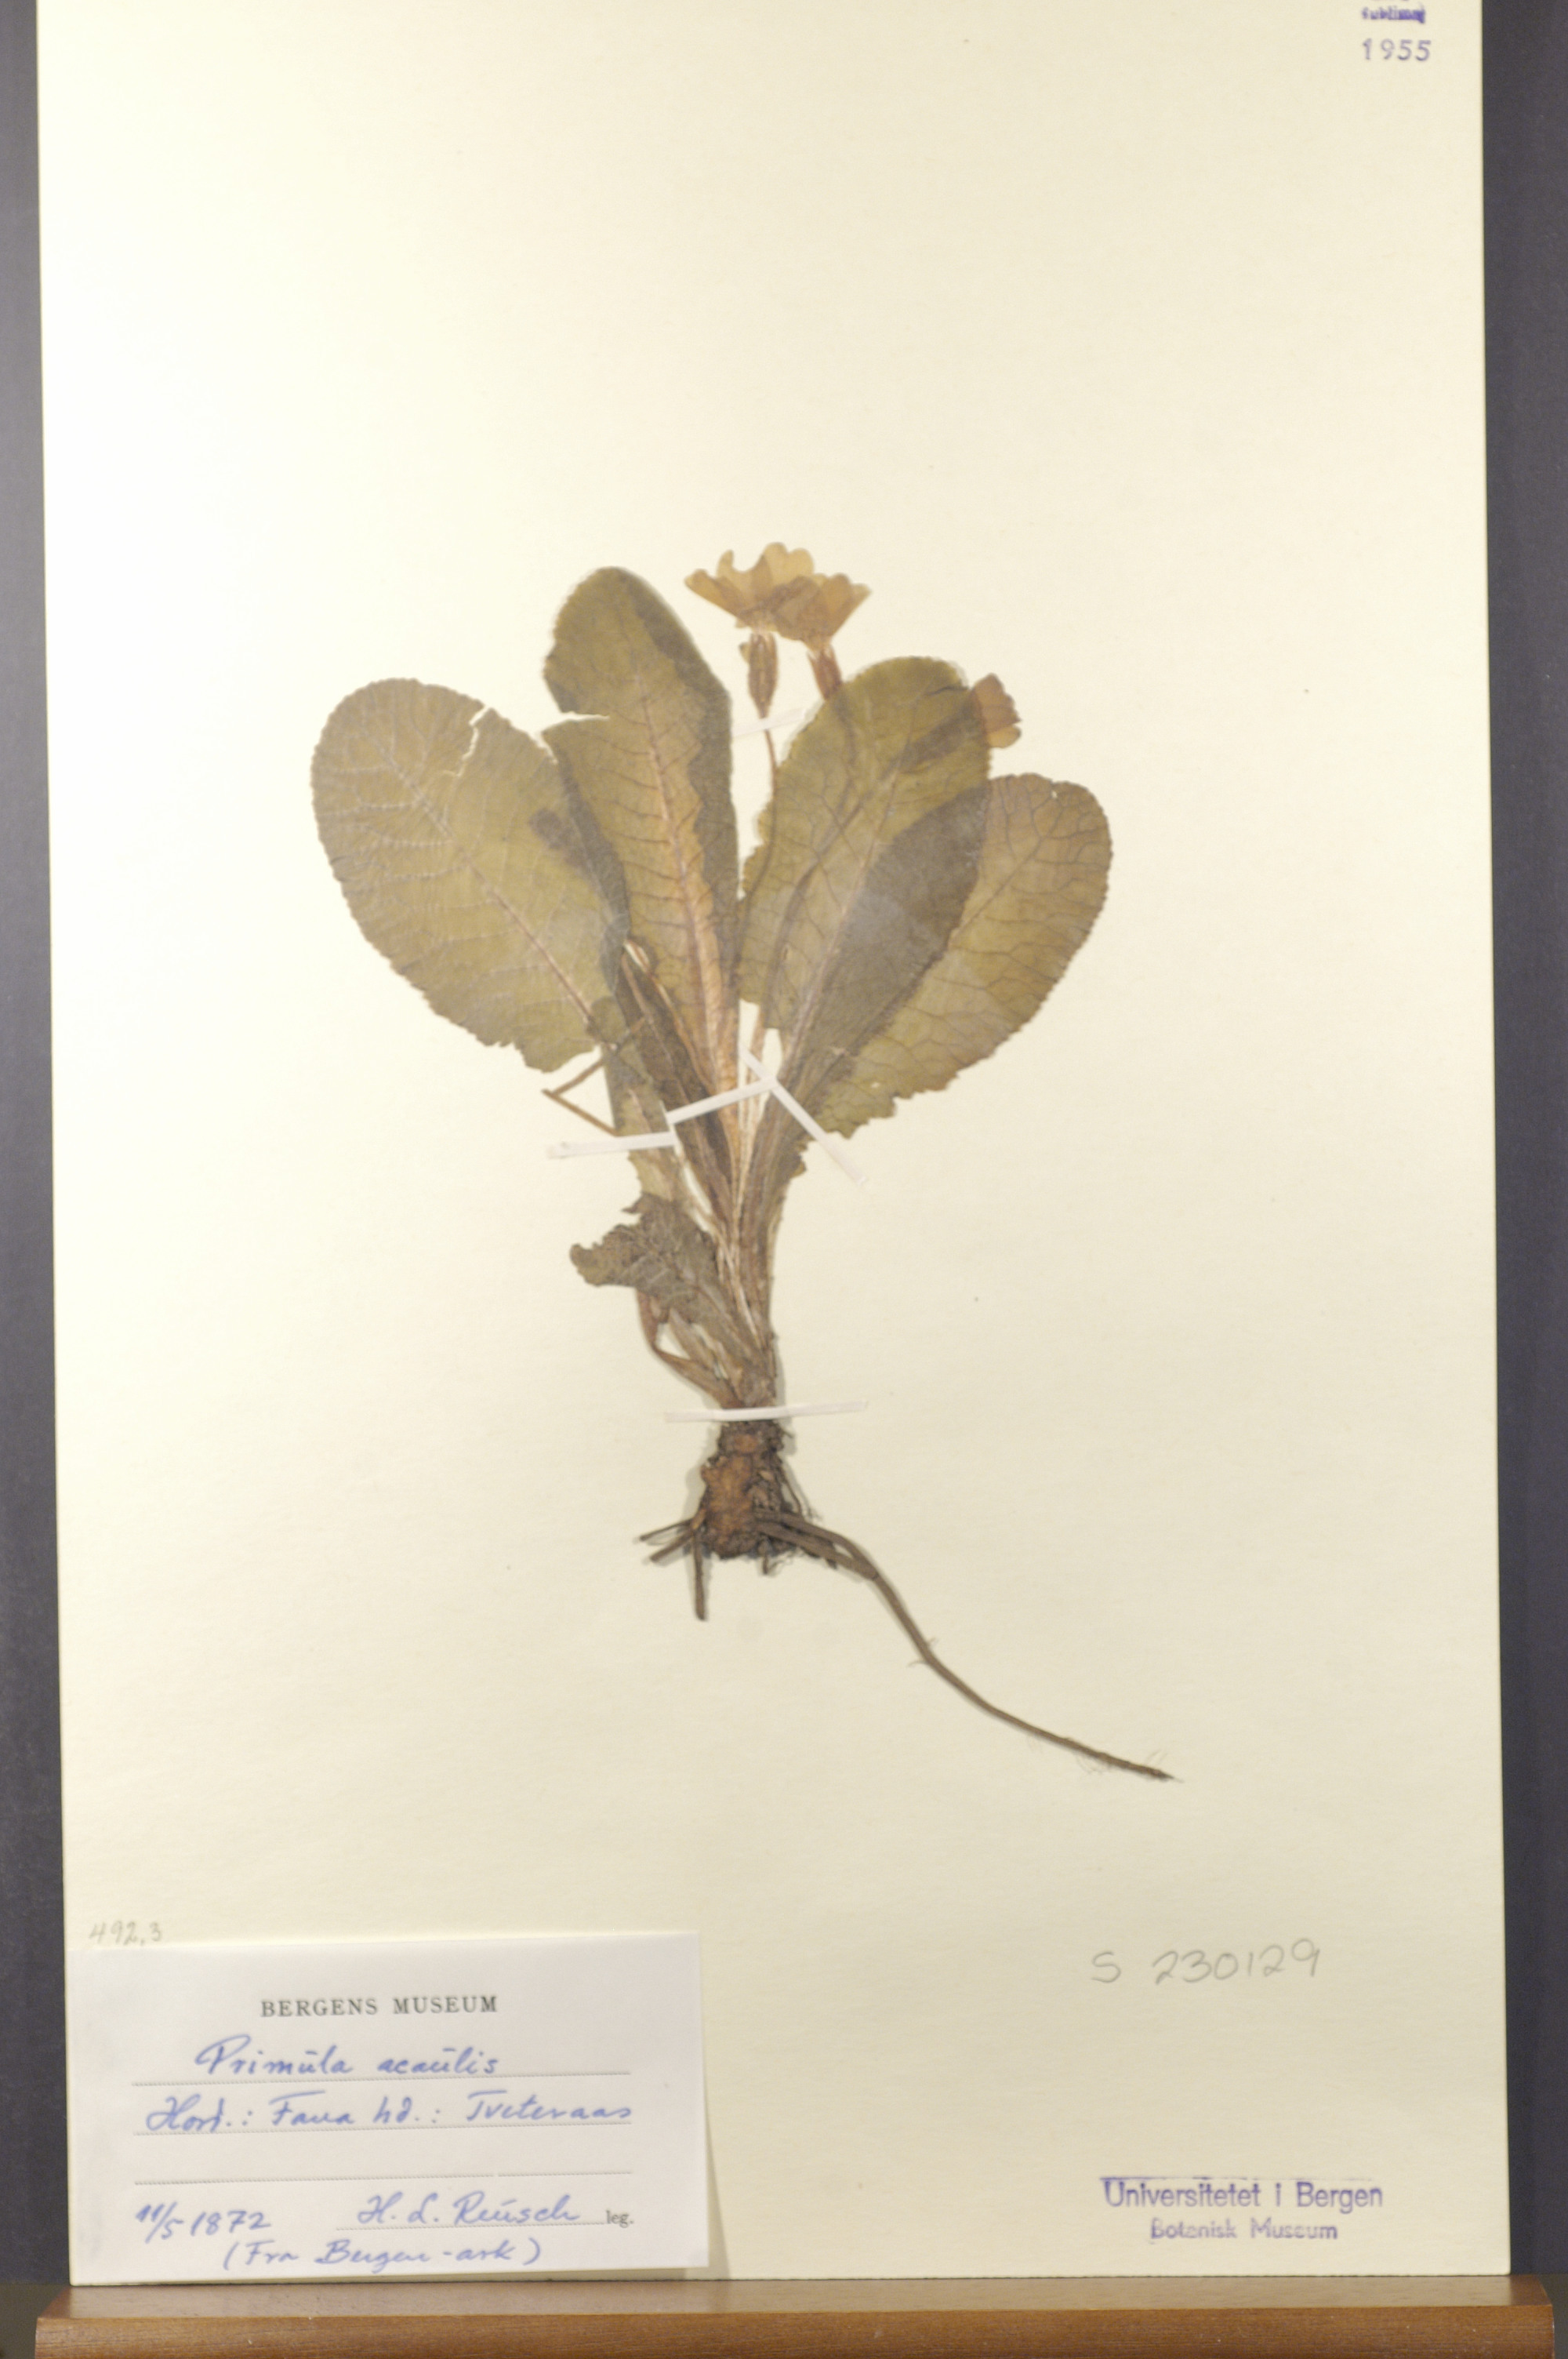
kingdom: Plantae
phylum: Tracheophyta
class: Magnoliopsida
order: Ericales
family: Primulaceae
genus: Primula
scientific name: Primula vulgaris
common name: Primrose
